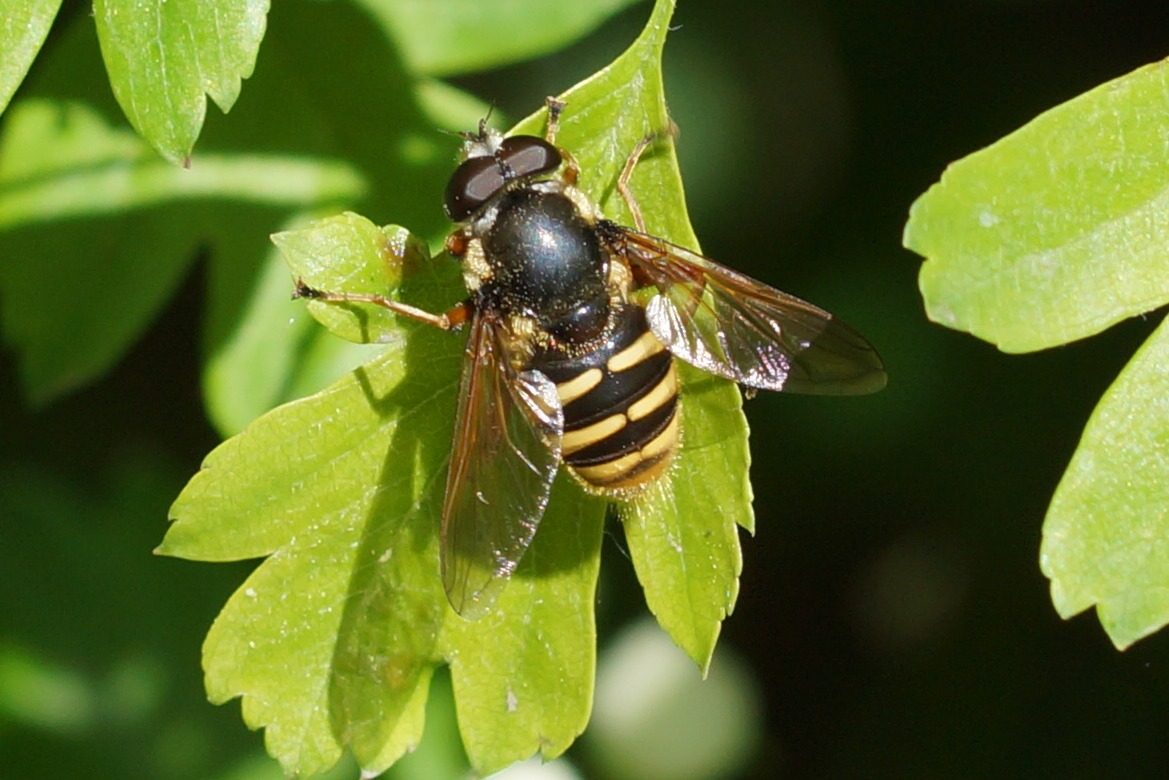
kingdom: Animalia
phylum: Arthropoda
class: Insecta
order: Diptera
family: Syrphidae
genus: Sericomyia
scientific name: Sericomyia silentis
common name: Tørve-silkesvirreflue
